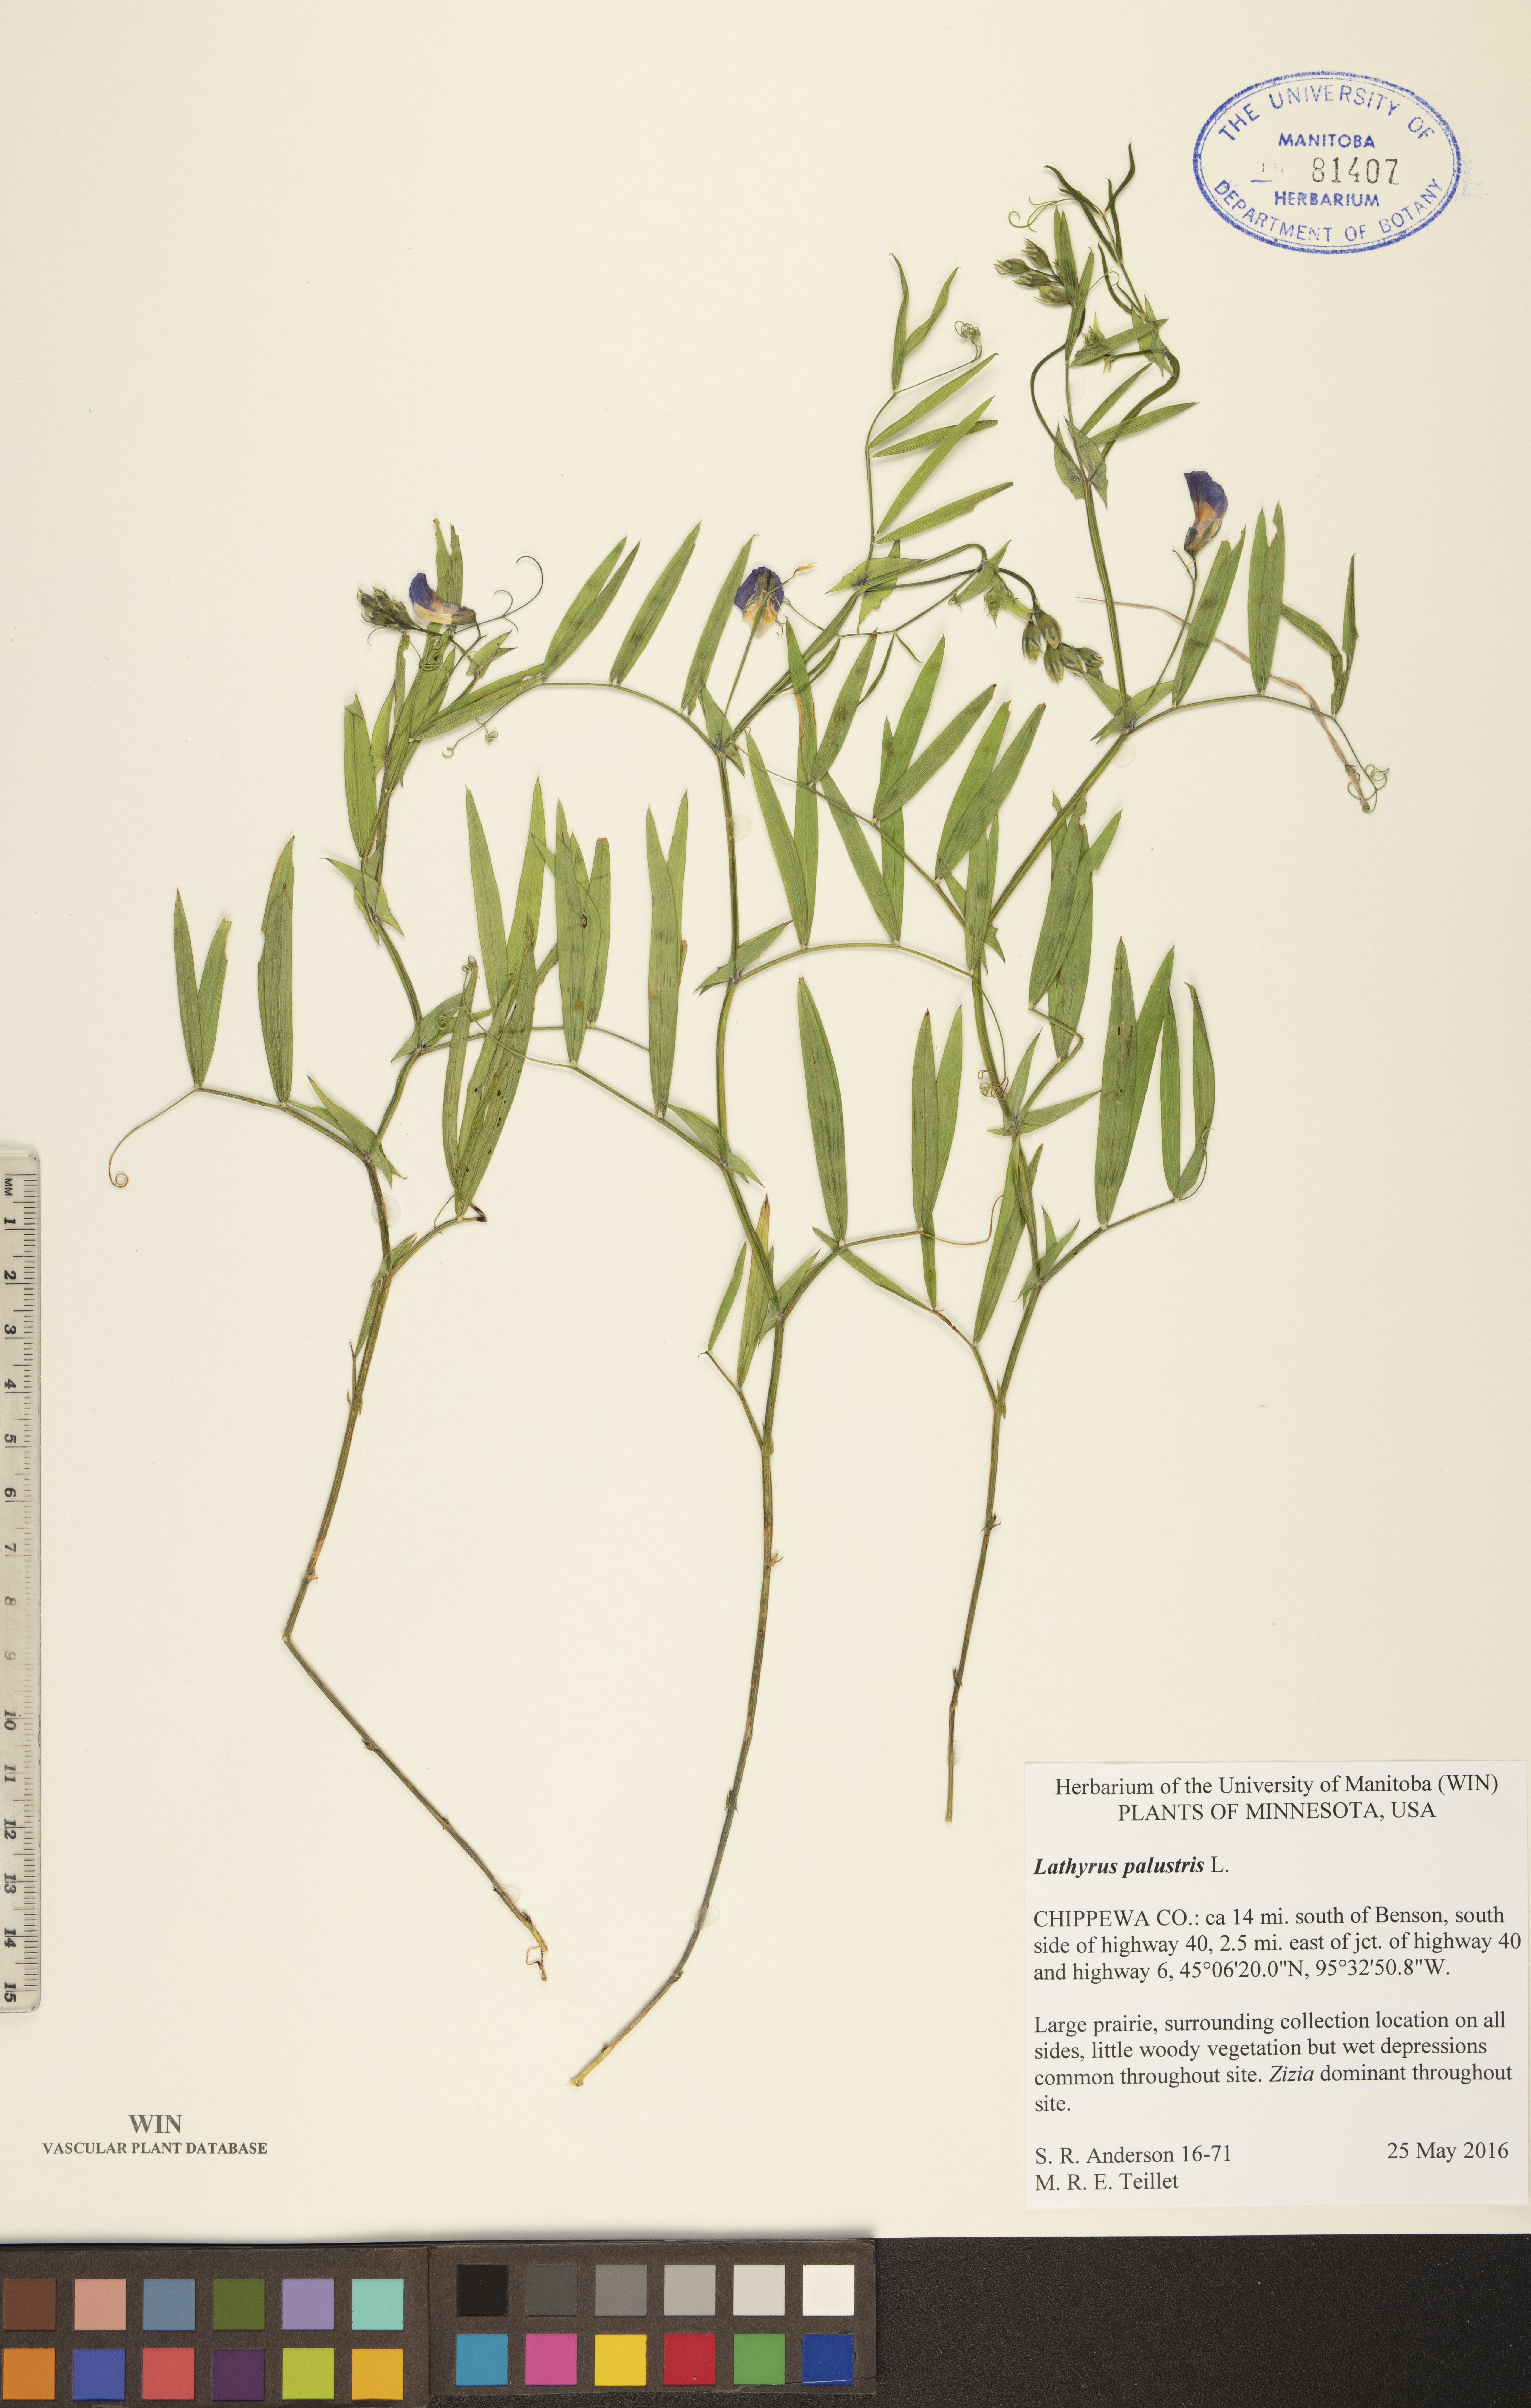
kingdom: Plantae
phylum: Tracheophyta
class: Magnoliopsida
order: Fabales
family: Fabaceae
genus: Lathyrus
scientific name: Lathyrus palustris
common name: Marsh pea
